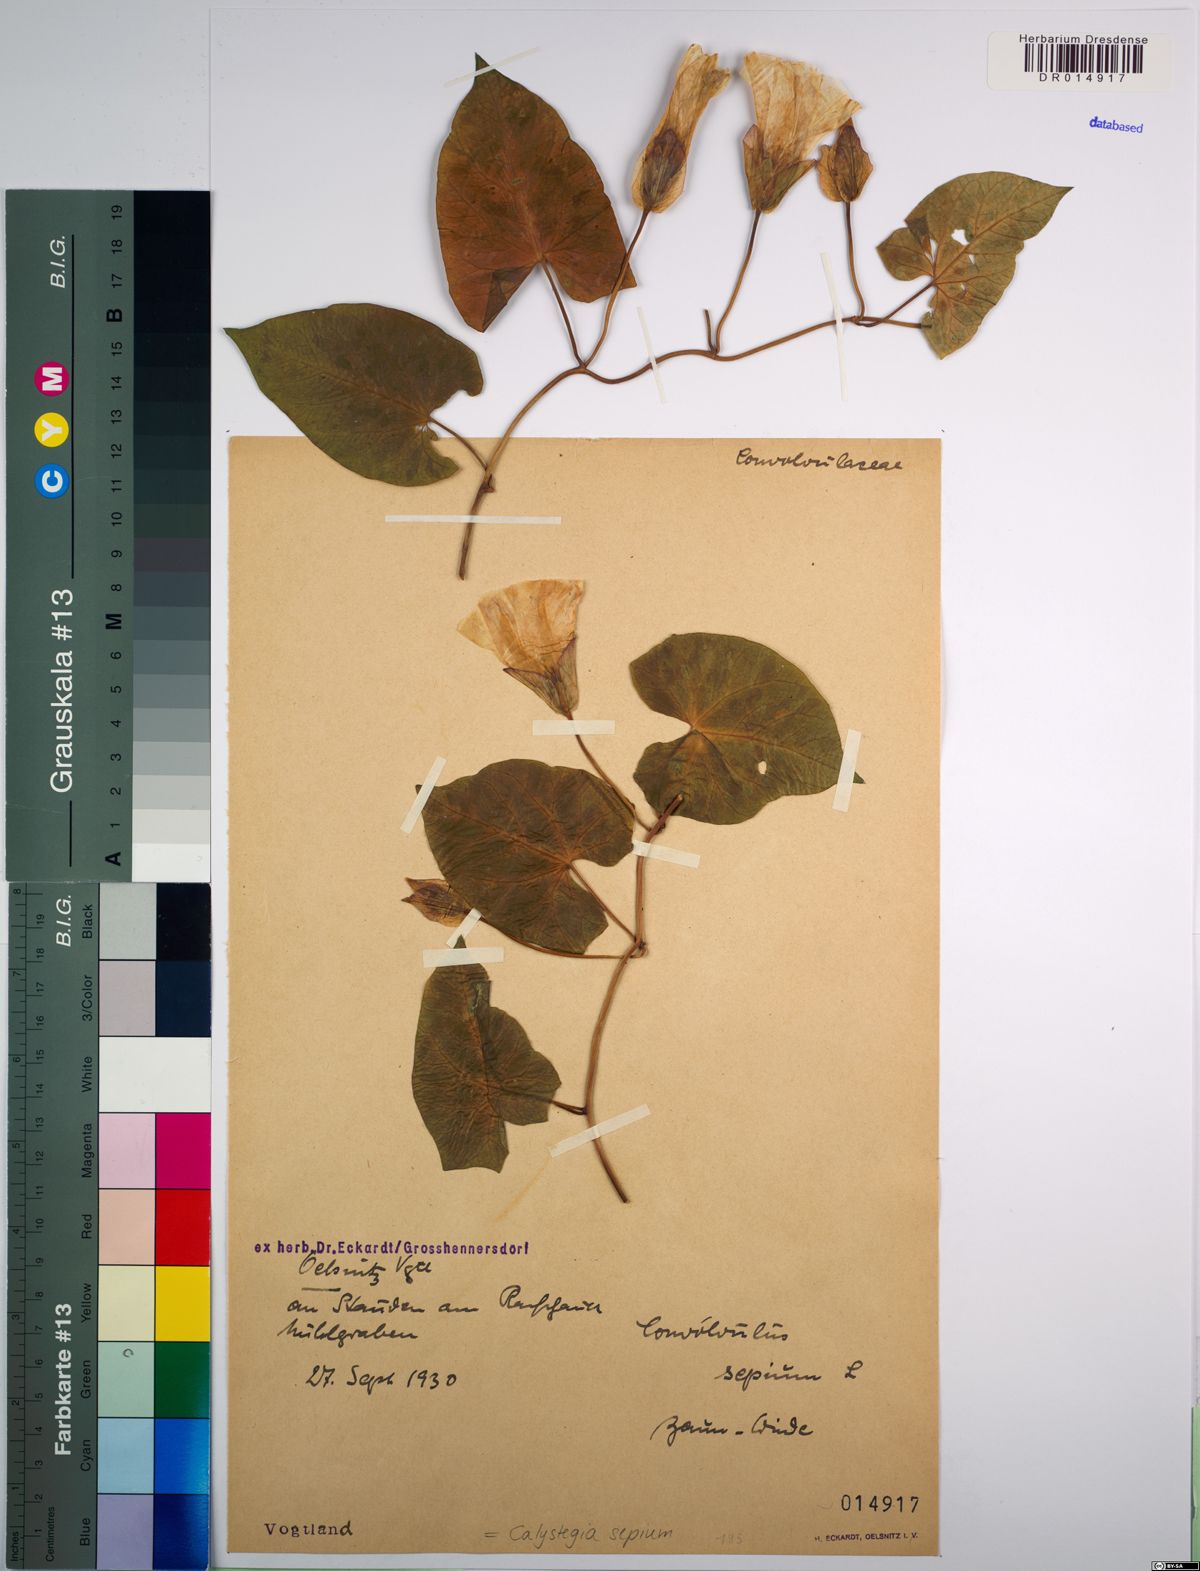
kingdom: Plantae
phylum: Tracheophyta
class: Magnoliopsida
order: Solanales
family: Convolvulaceae
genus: Calystegia
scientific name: Calystegia sepium
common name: Hedge bindweed
